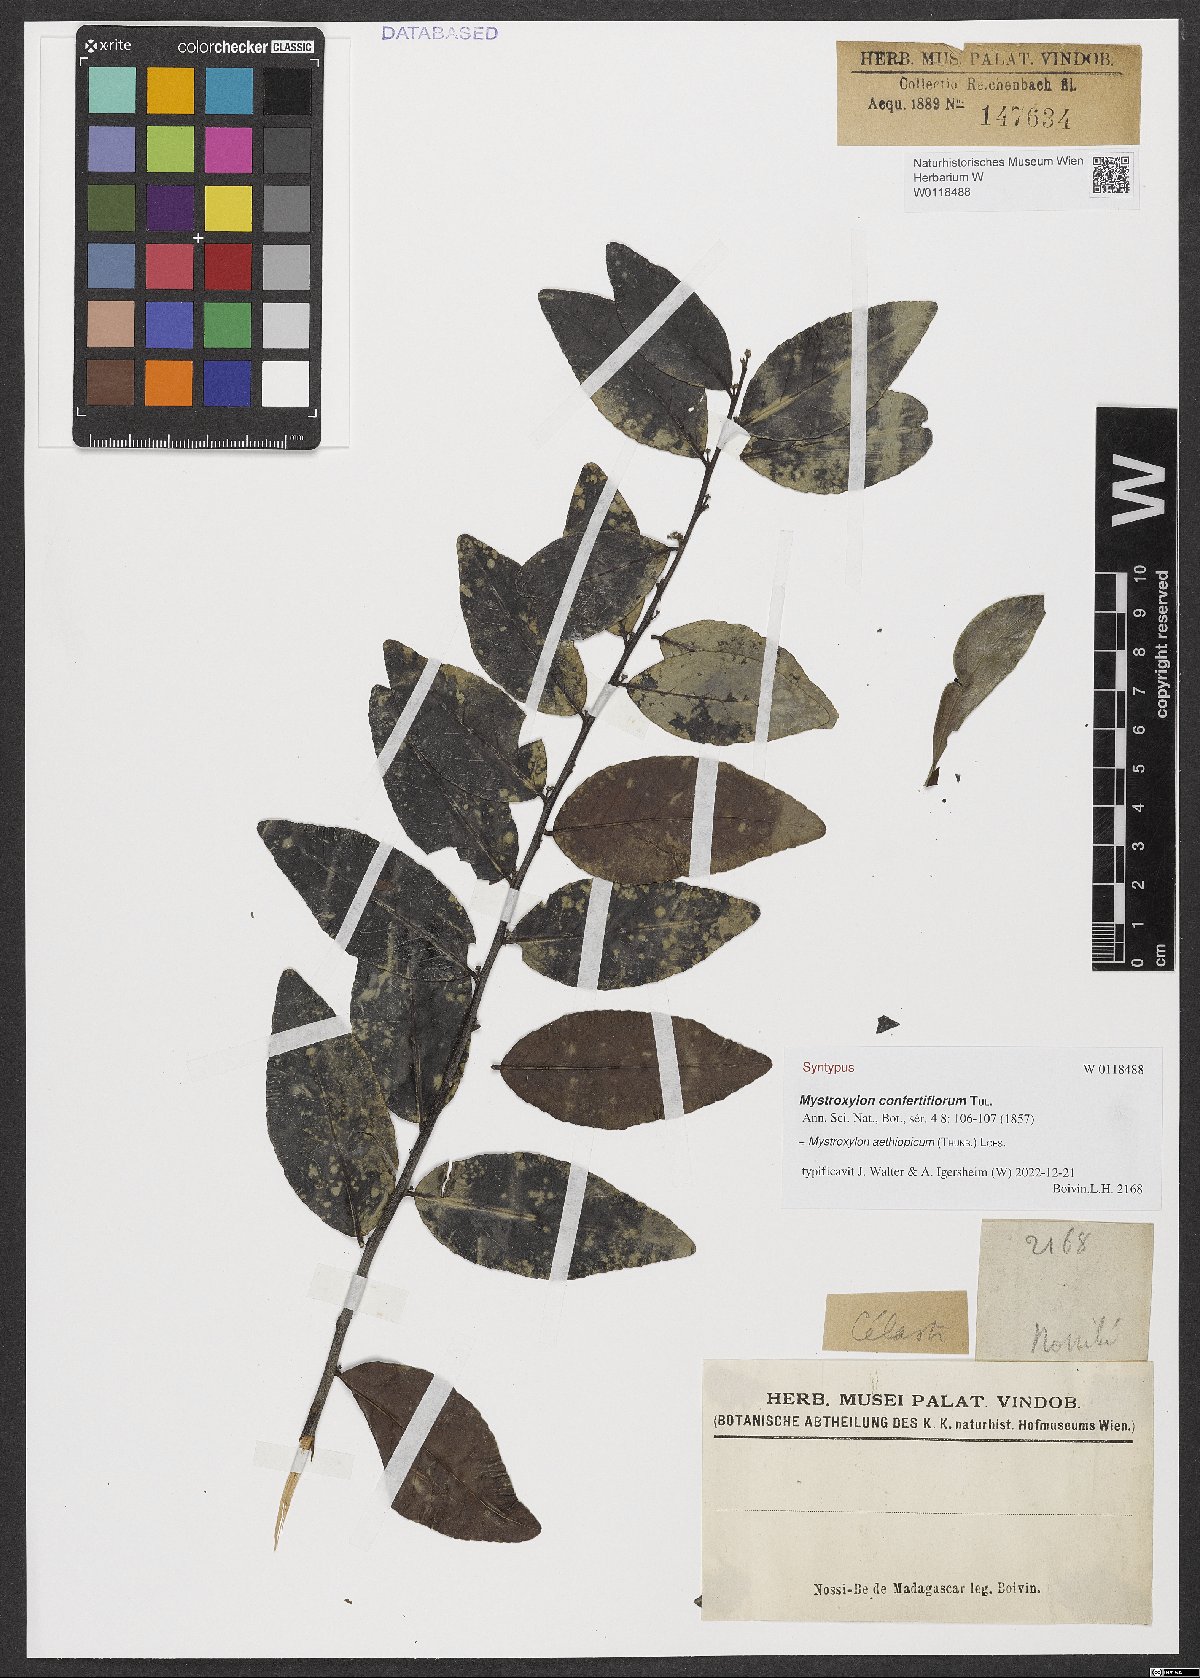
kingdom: Plantae
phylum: Tracheophyta
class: Magnoliopsida
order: Celastrales
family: Celastraceae
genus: Mystroxylon
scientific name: Mystroxylon aethiopicum
